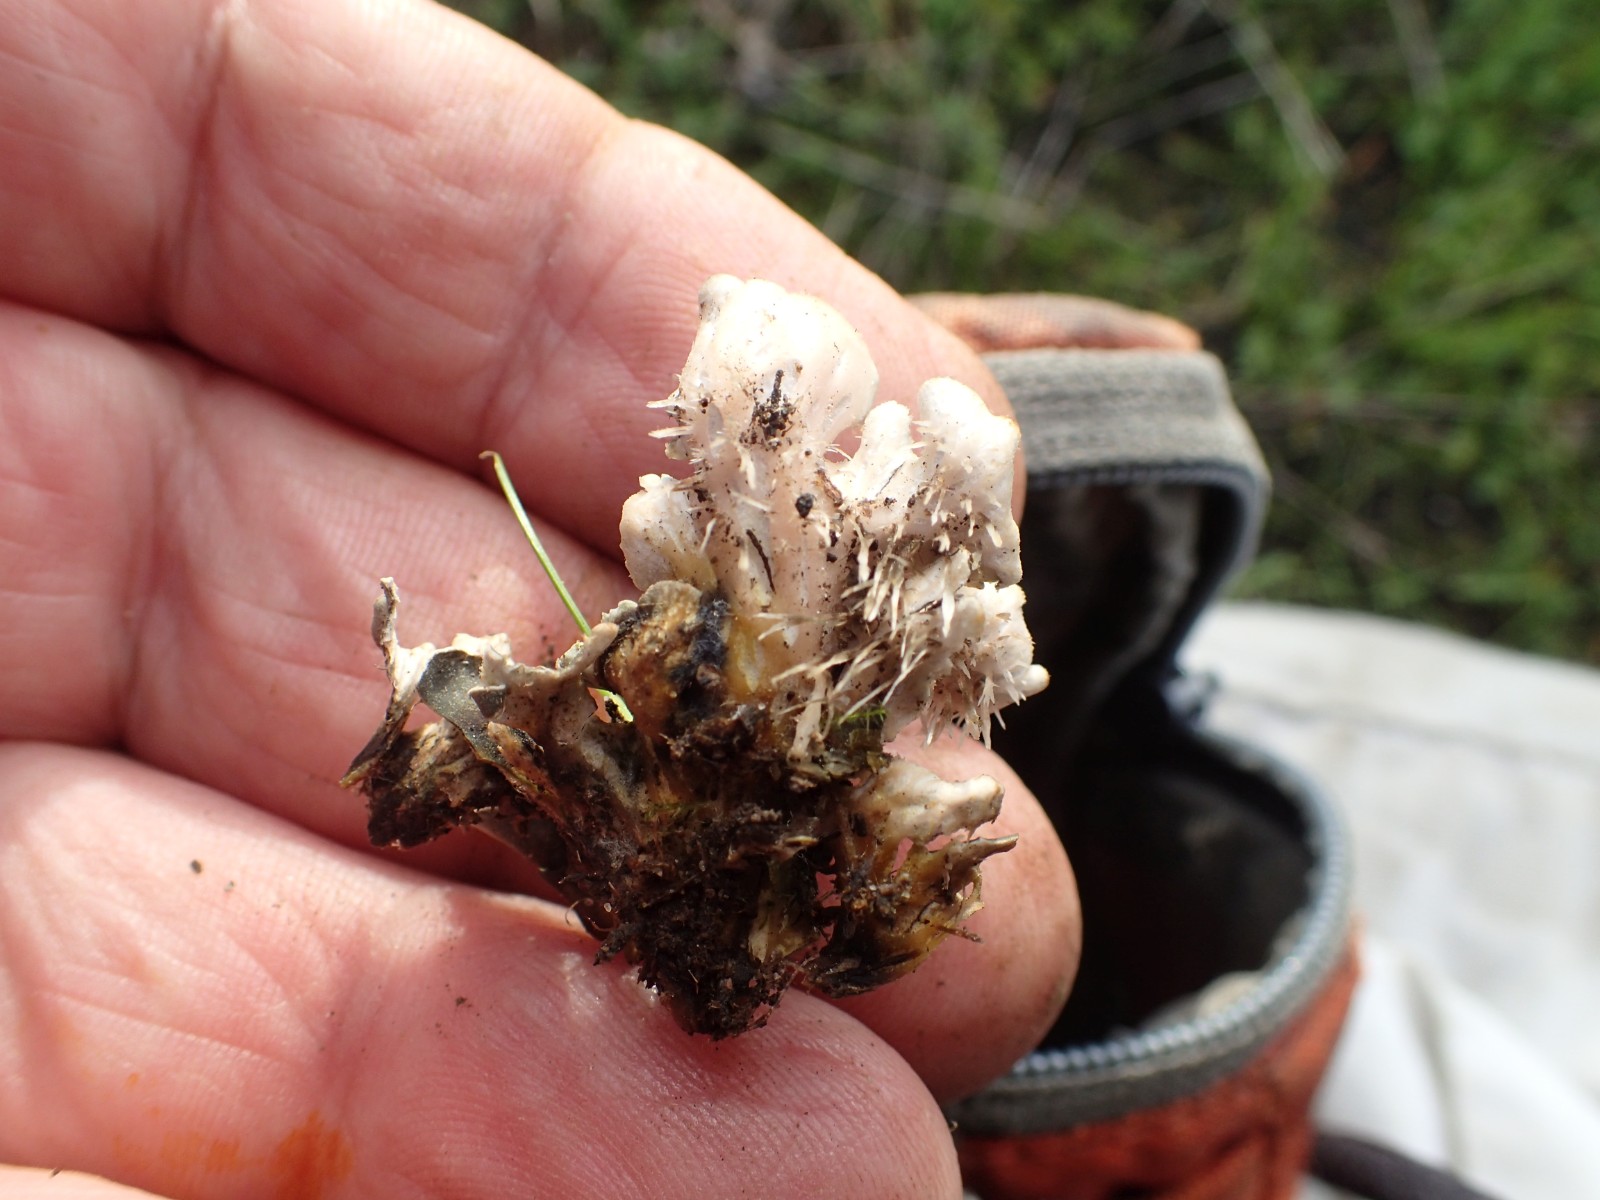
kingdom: Fungi
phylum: Ascomycota
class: Lecanoromycetes
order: Peltigerales
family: Peltigeraceae
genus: Peltigera
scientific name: Peltigera
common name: skjoldlav
